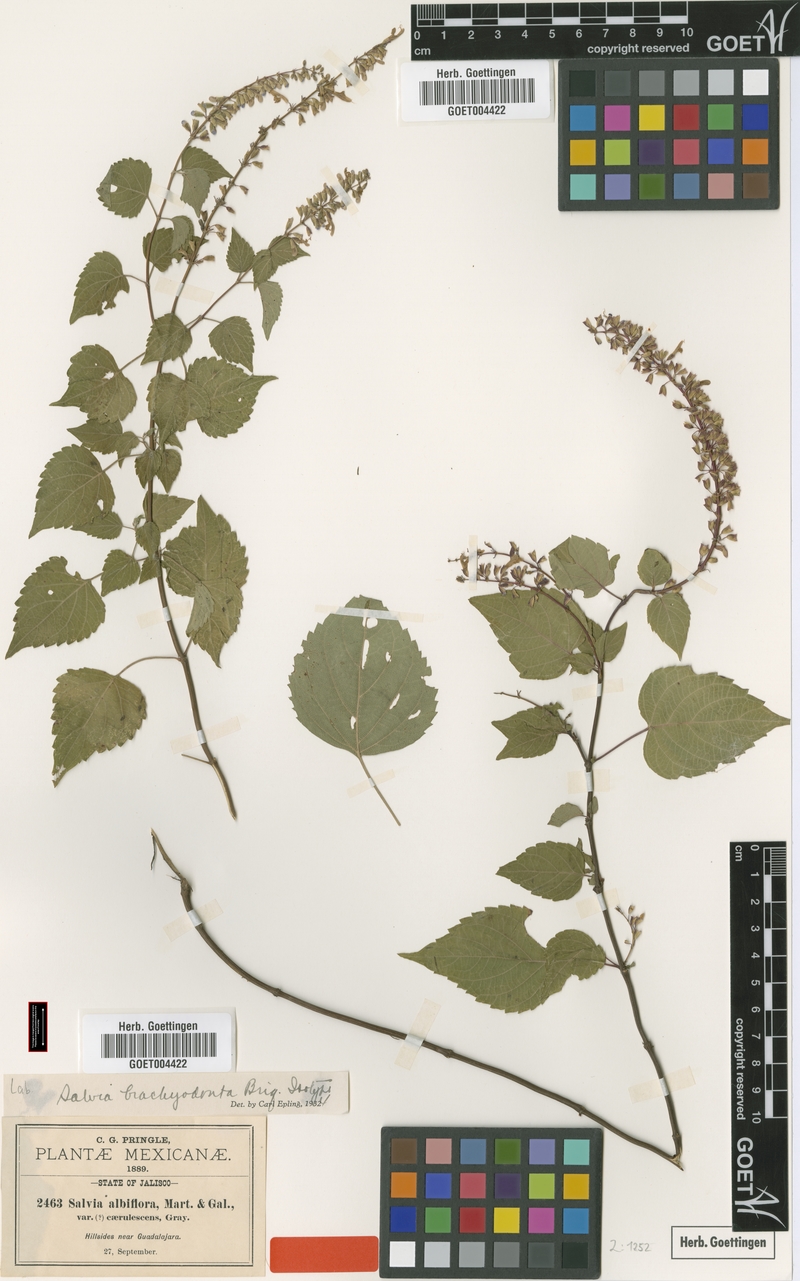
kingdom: Plantae
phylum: Tracheophyta
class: Magnoliopsida
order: Lamiales
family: Lamiaceae
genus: Salvia
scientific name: Salvia brachyodonta
